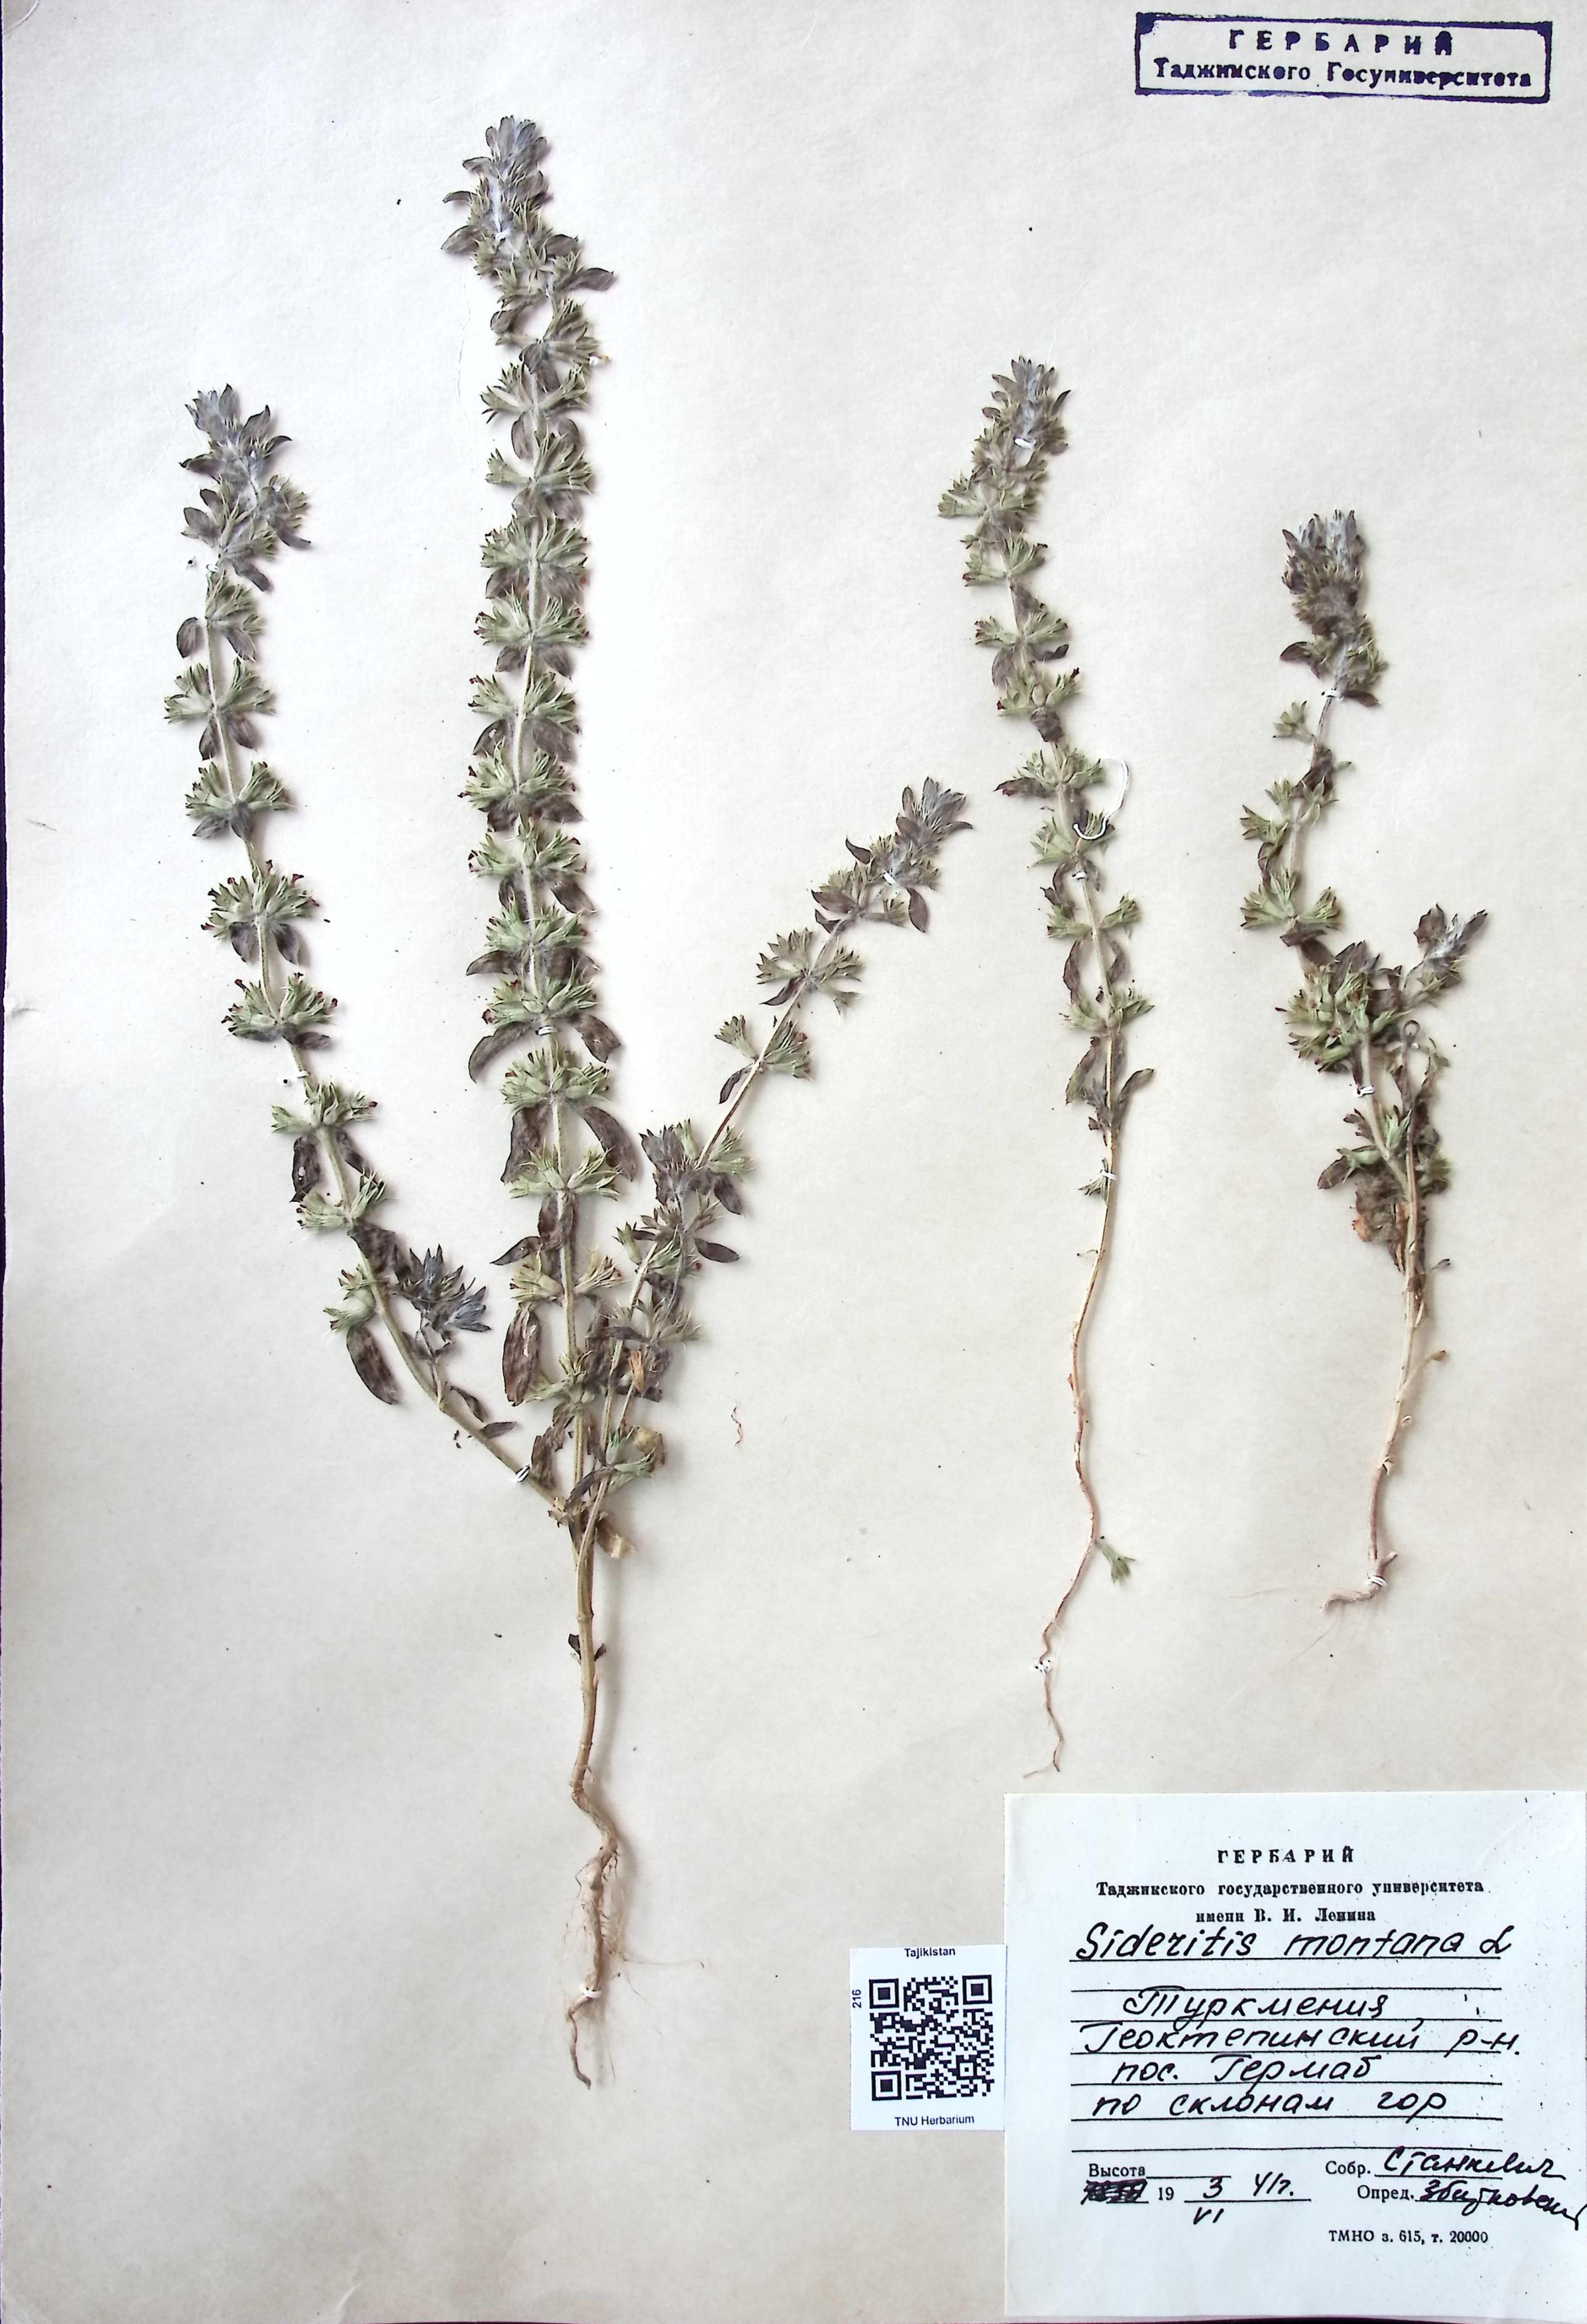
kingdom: Plantae
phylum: Tracheophyta
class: Magnoliopsida
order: Lamiales
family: Lamiaceae
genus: Sideritis
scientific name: Sideritis montana
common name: Mountain ironwort
